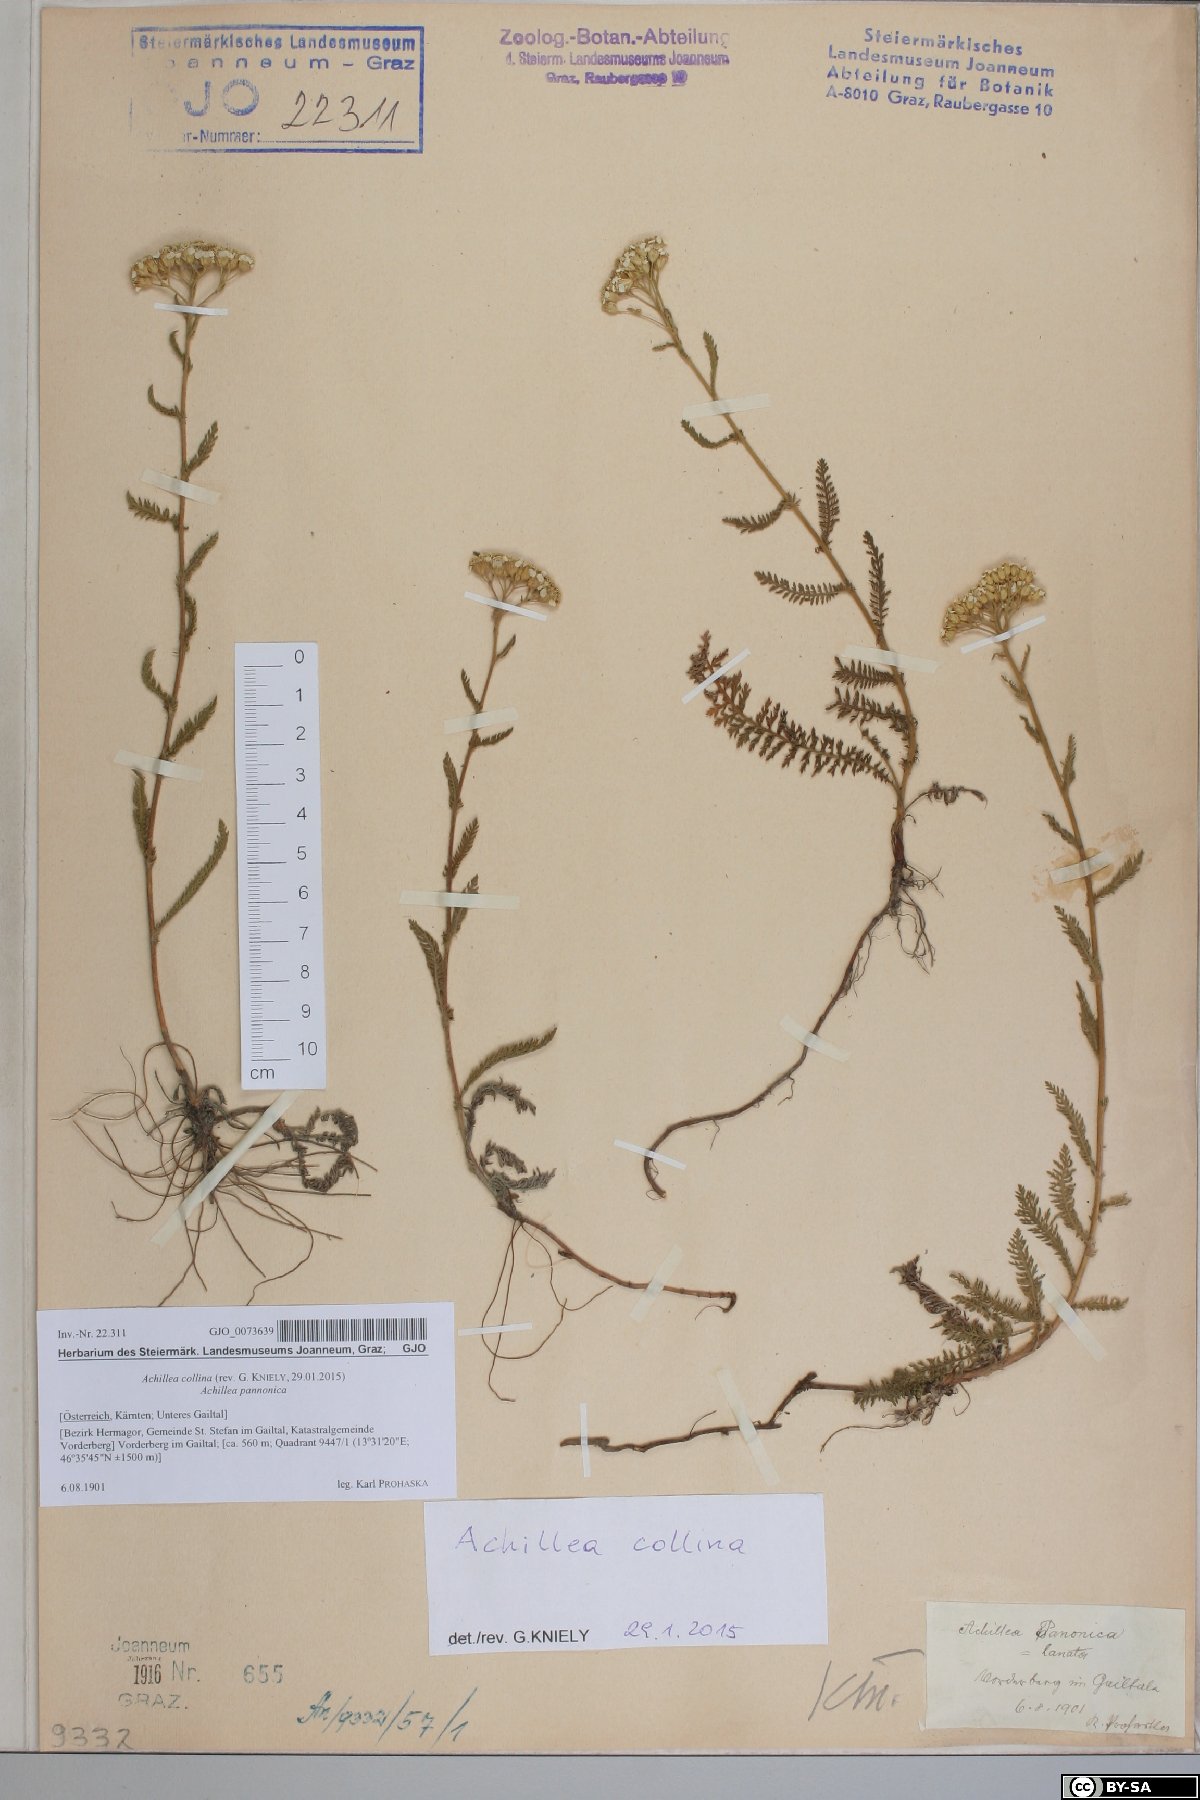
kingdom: Plantae
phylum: Tracheophyta
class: Magnoliopsida
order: Asterales
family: Asteraceae
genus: Achillea
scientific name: Achillea collina
